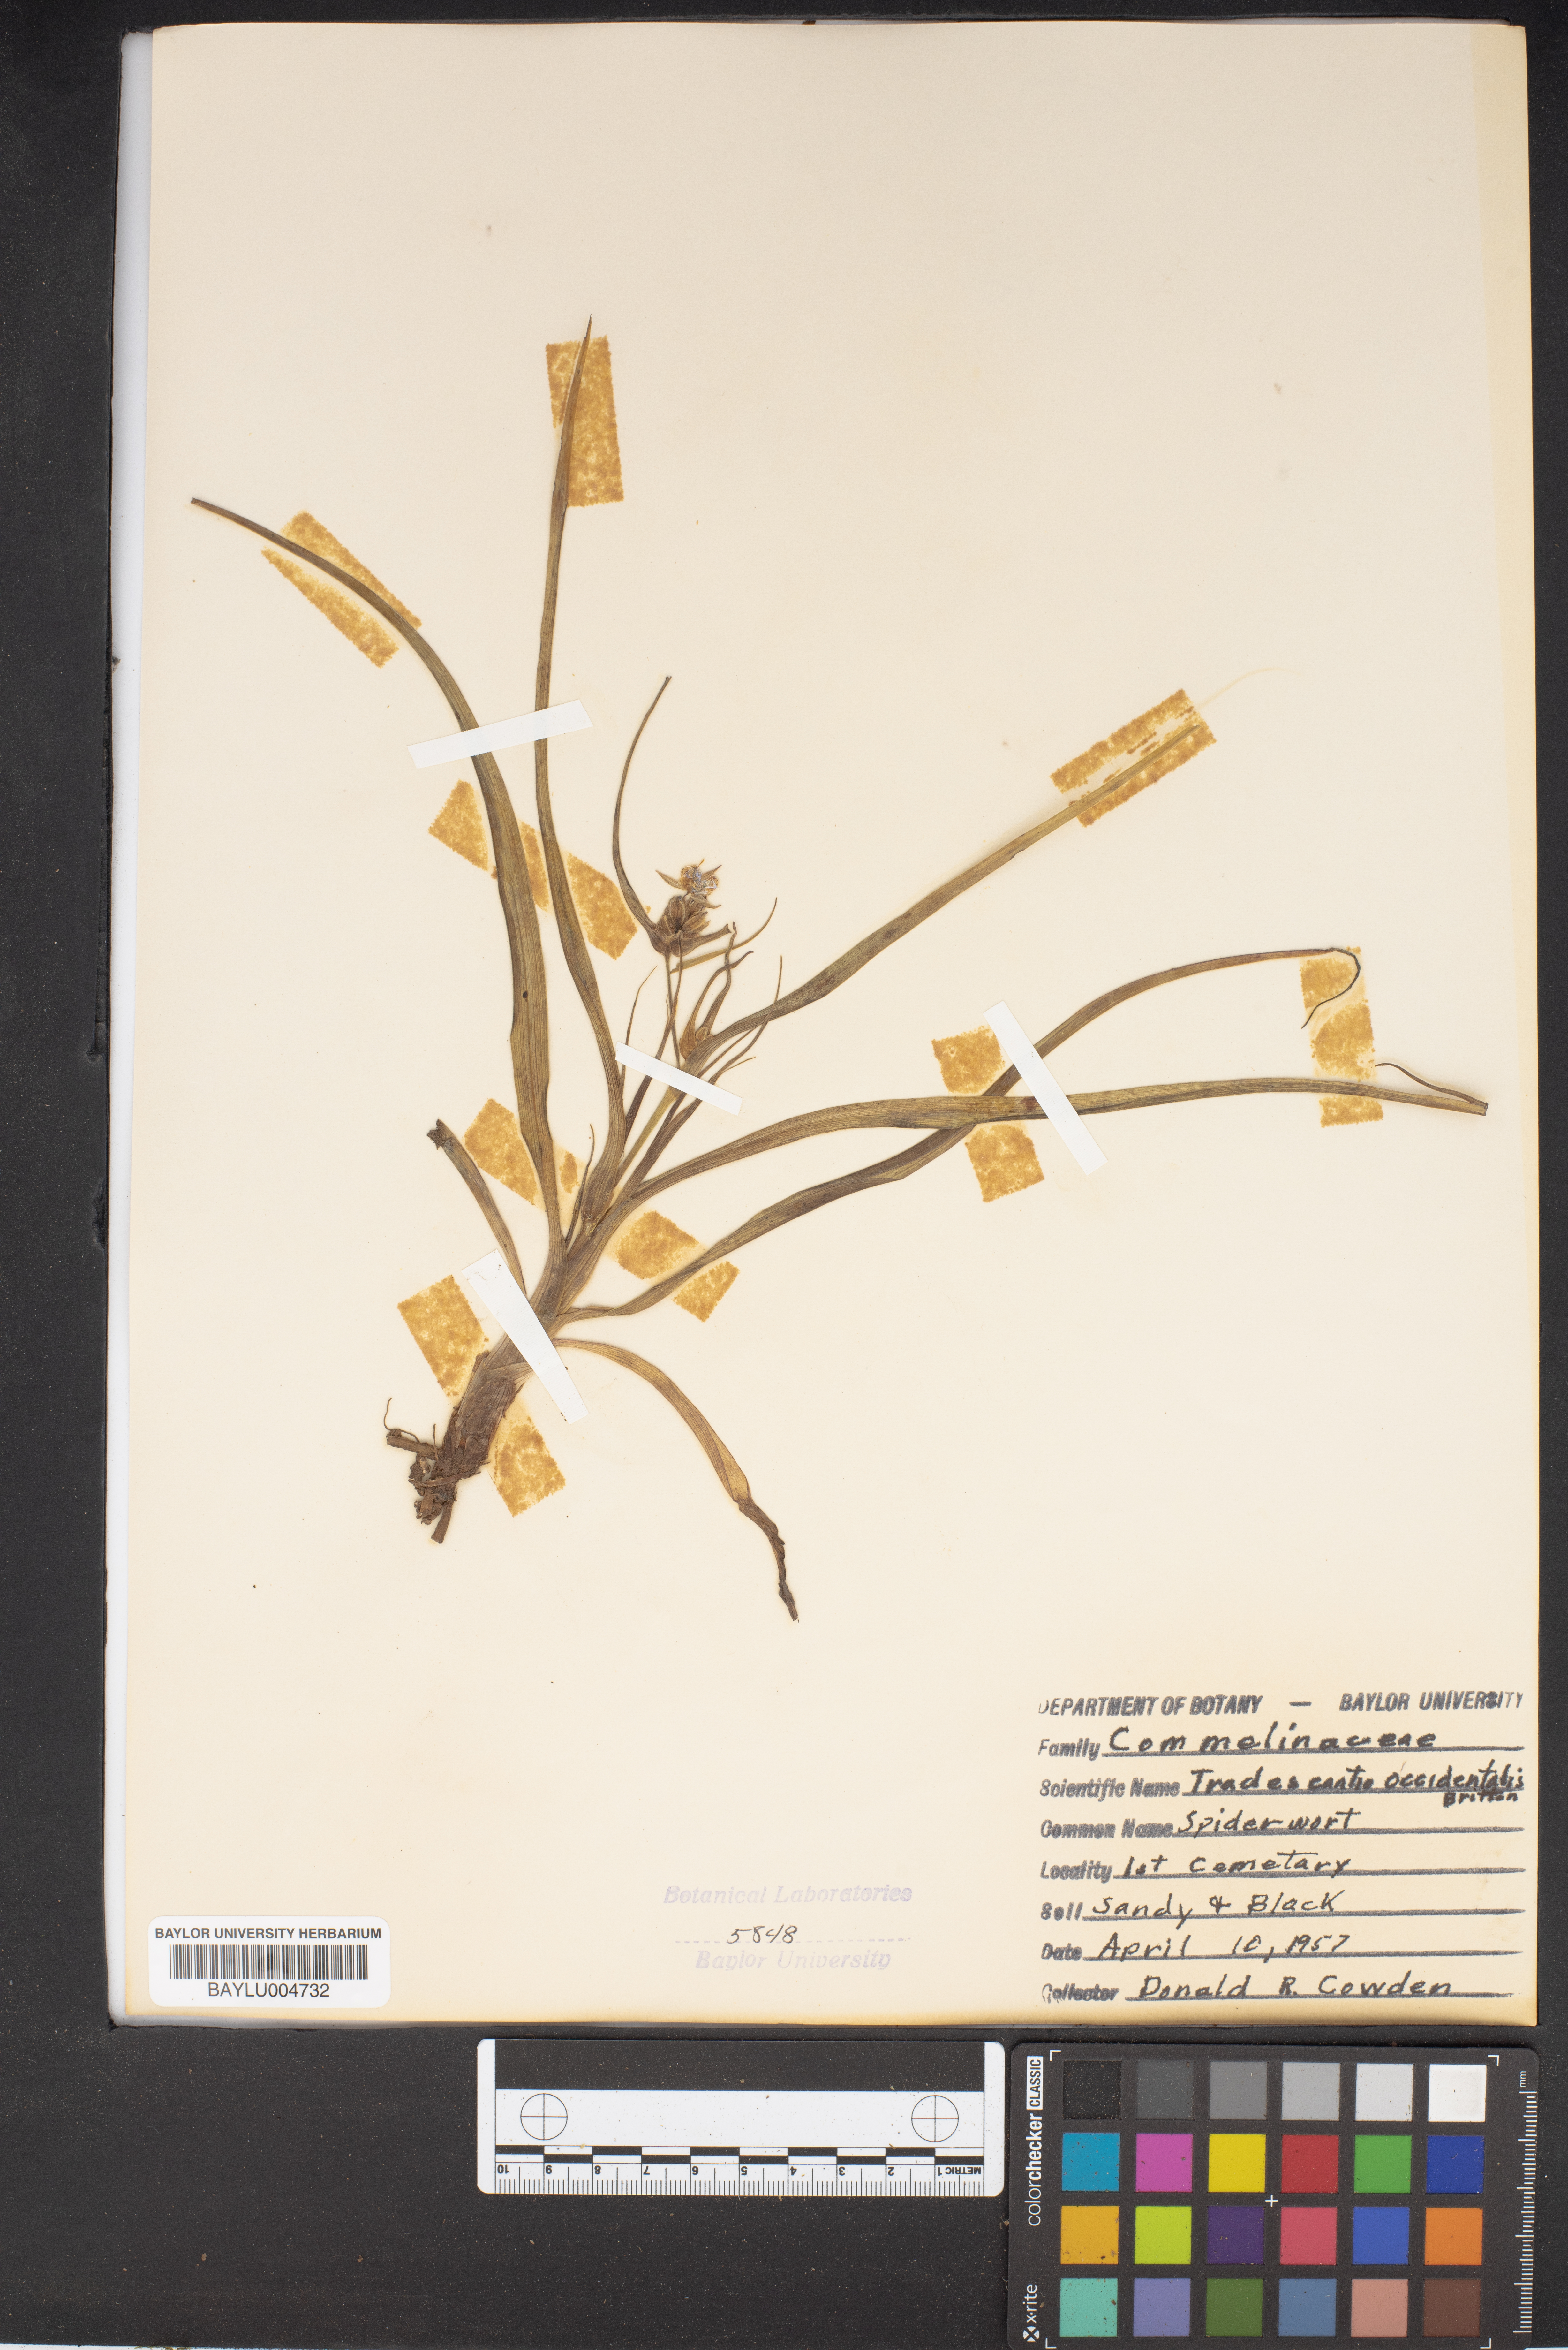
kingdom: Plantae
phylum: Tracheophyta
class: Liliopsida
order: Commelinales
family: Commelinaceae
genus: Tradescantia
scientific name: Tradescantia occidentalis
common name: Prairie spiderwort
